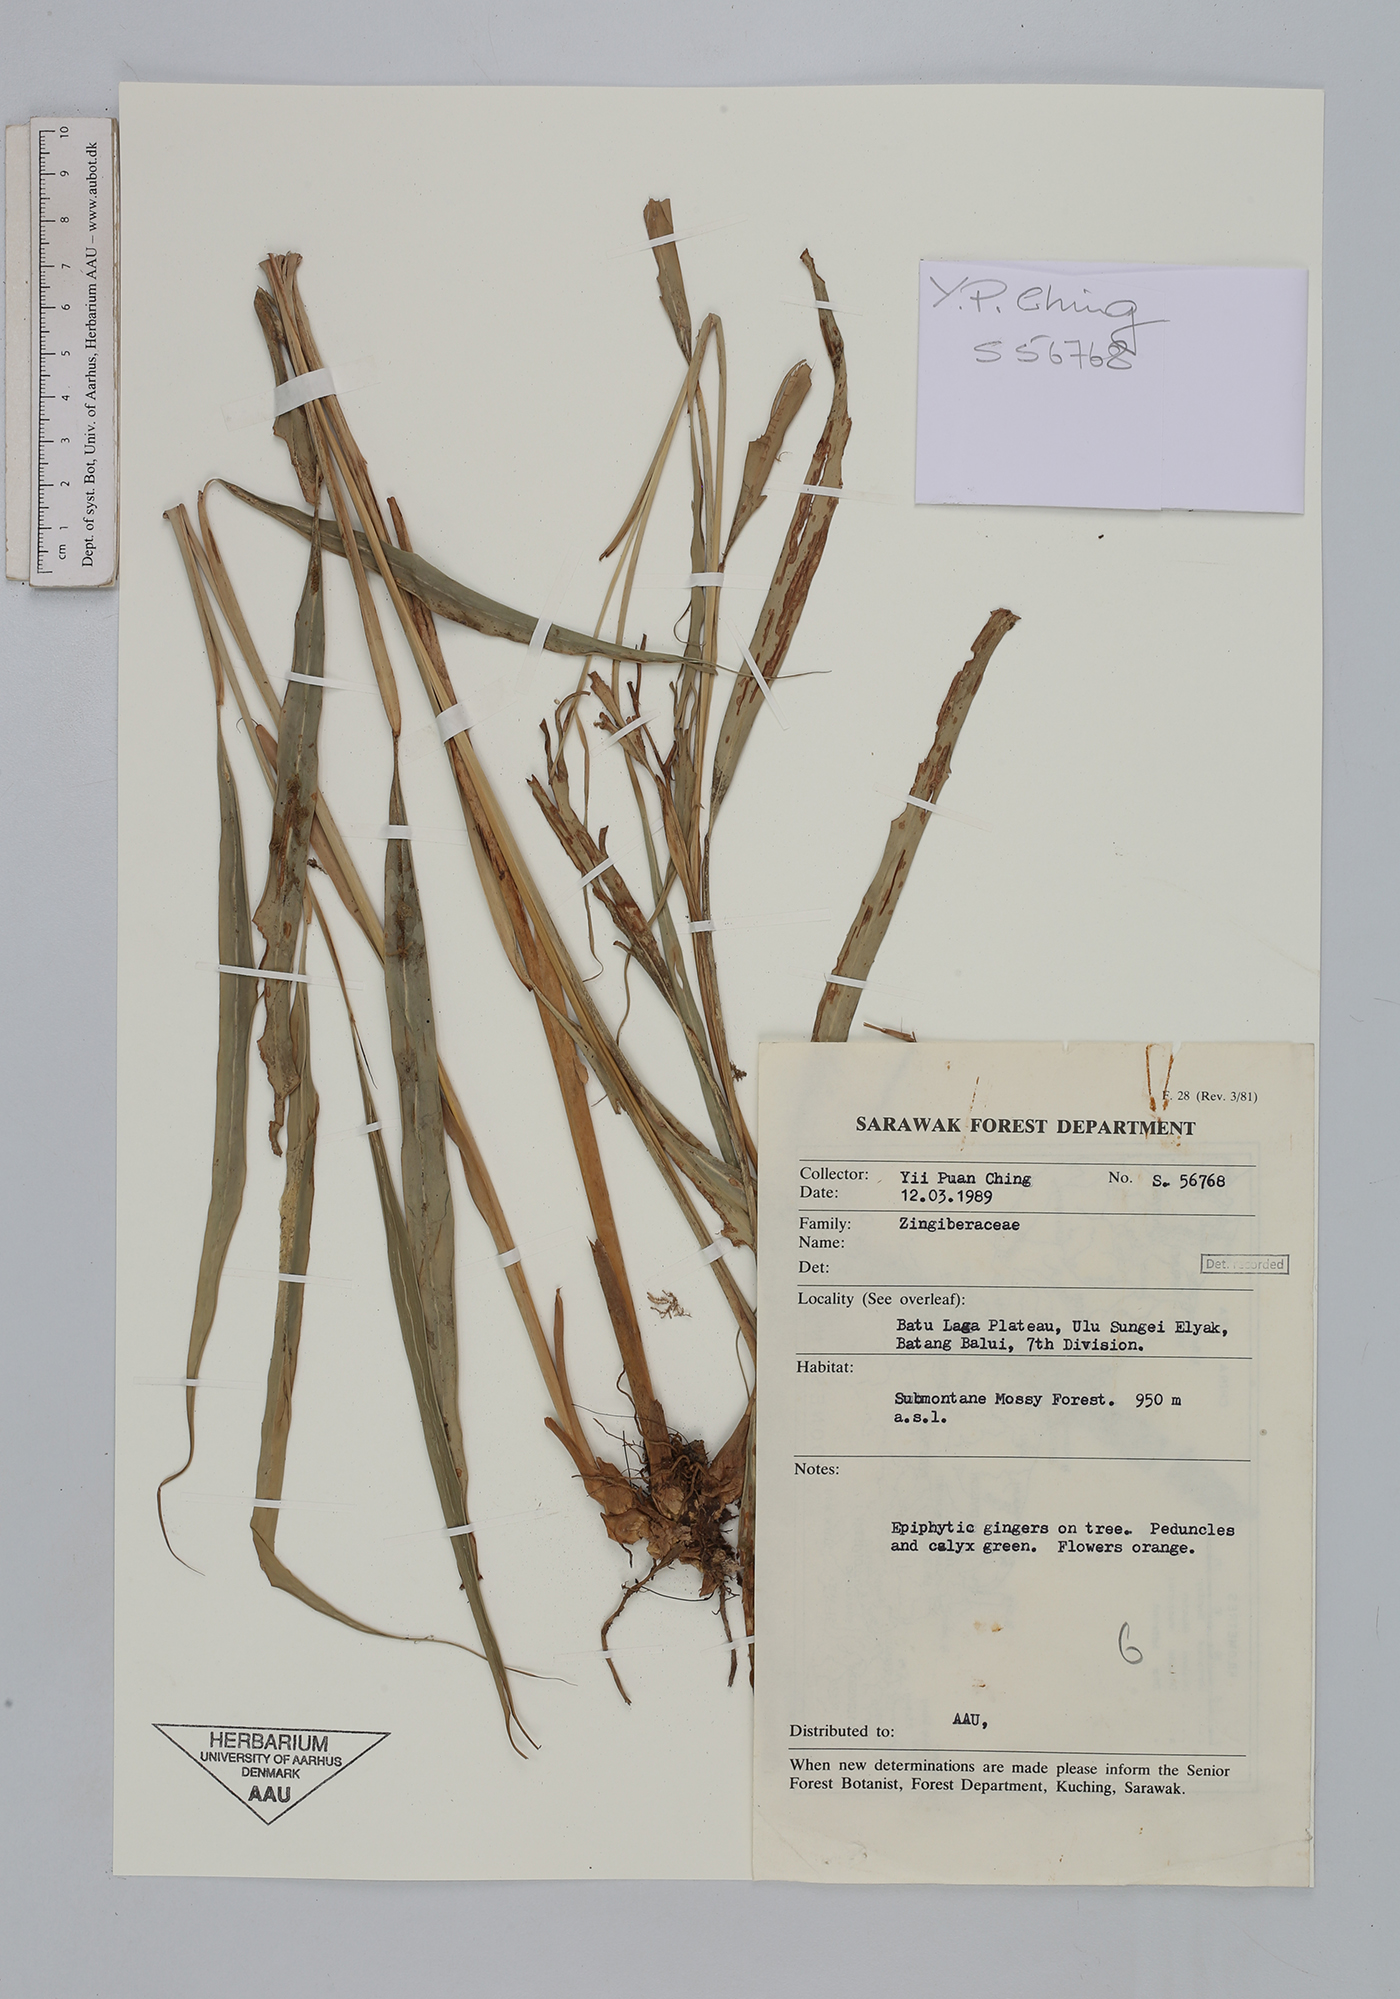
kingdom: Plantae
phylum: Tracheophyta
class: Liliopsida
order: Zingiberales
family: Zingiberaceae
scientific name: Zingiberaceae
